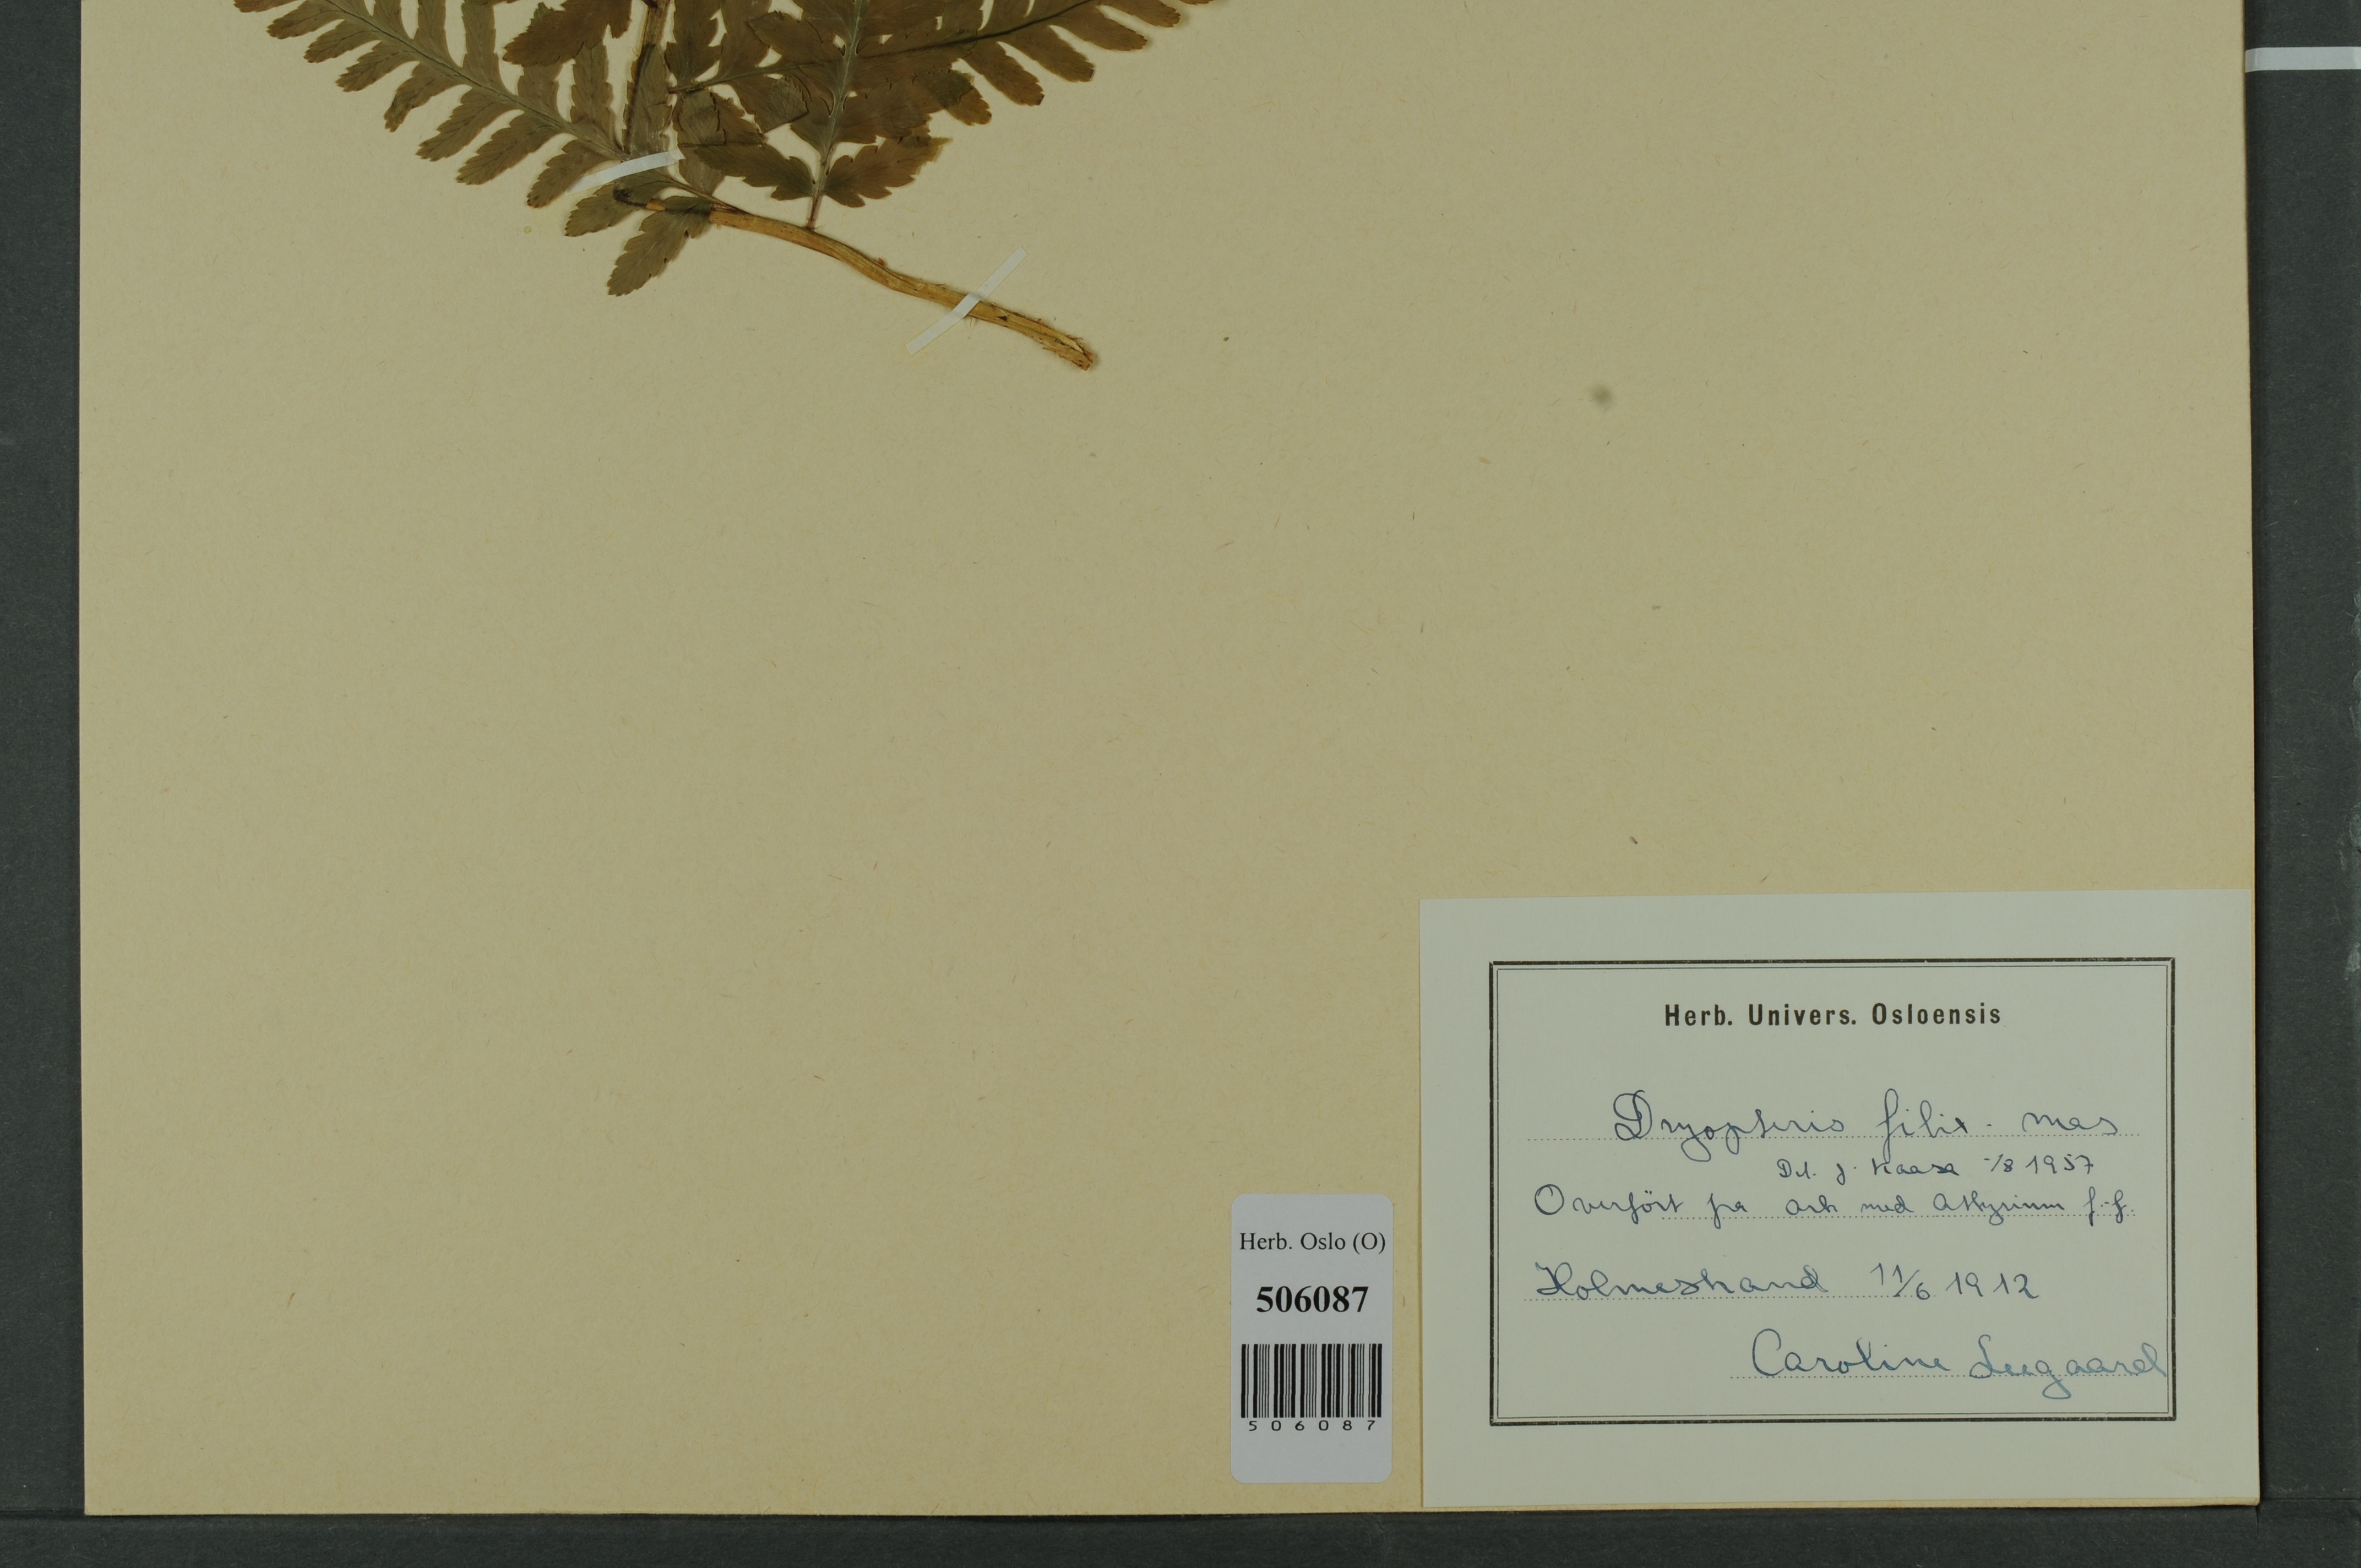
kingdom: Plantae
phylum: Tracheophyta
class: Polypodiopsida
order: Polypodiales
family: Dryopteridaceae
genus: Dryopteris
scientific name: Dryopteris filix-mas
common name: Male fern
